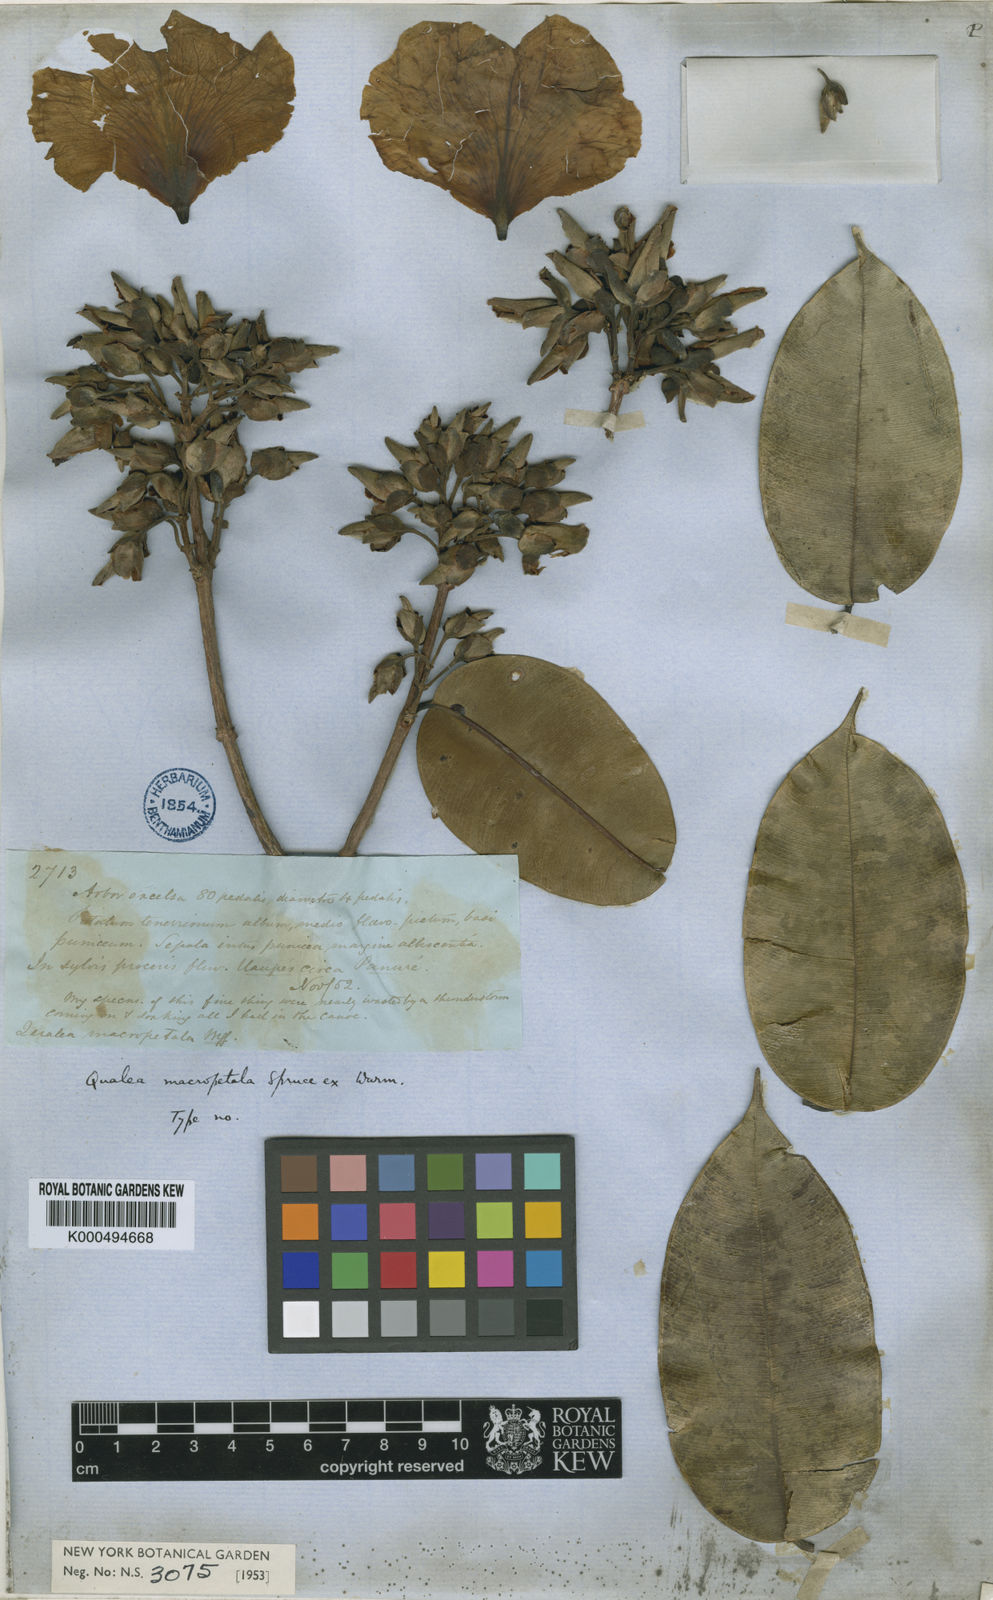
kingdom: Plantae
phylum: Tracheophyta
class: Magnoliopsida
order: Myrtales
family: Vochysiaceae
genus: Qualea
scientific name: Qualea macropetala
